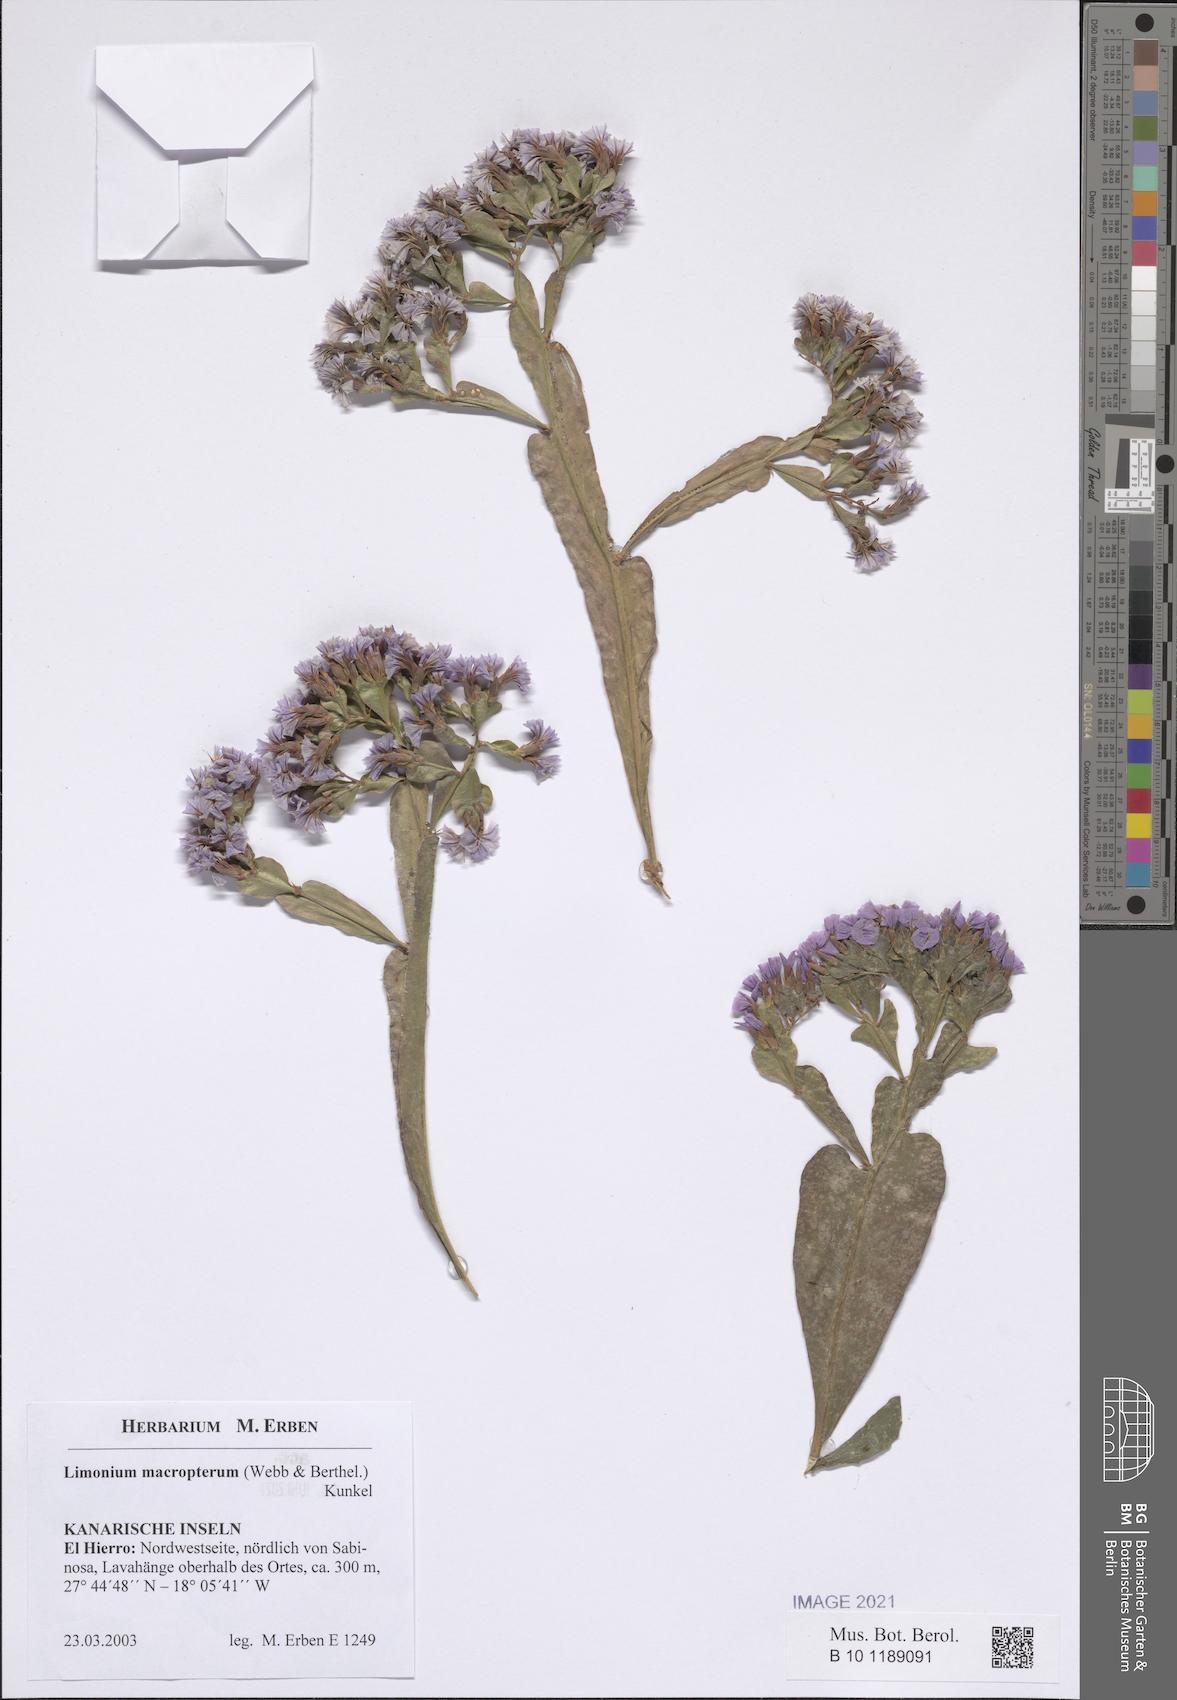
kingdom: Plantae
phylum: Tracheophyta
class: Magnoliopsida
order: Caryophyllales
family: Plumbaginaceae
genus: Limonium
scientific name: Limonium macropterum
